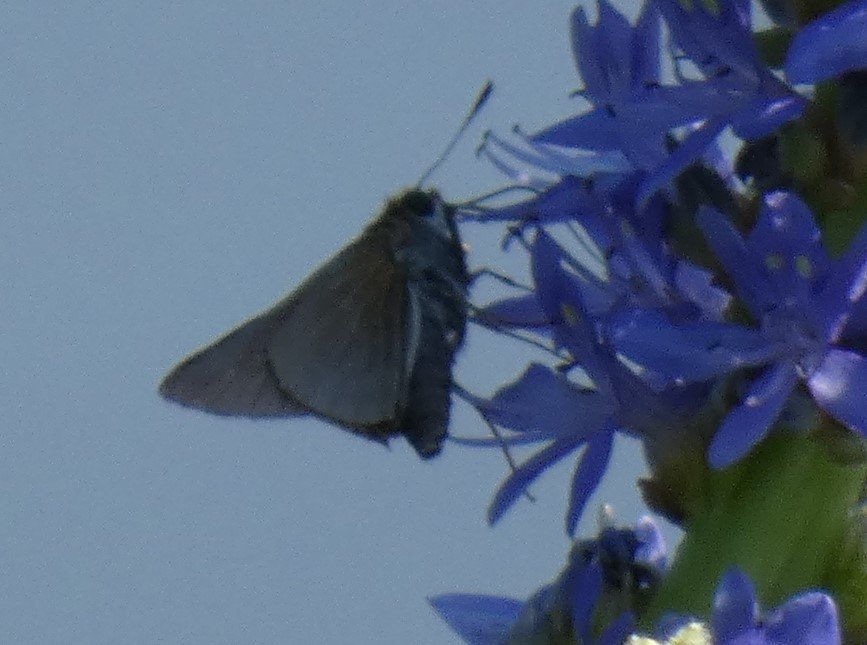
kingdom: Animalia
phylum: Arthropoda
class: Insecta
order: Lepidoptera
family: Hesperiidae
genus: Euphyes
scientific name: Euphyes bimacula
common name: Two-spotted Skipper
